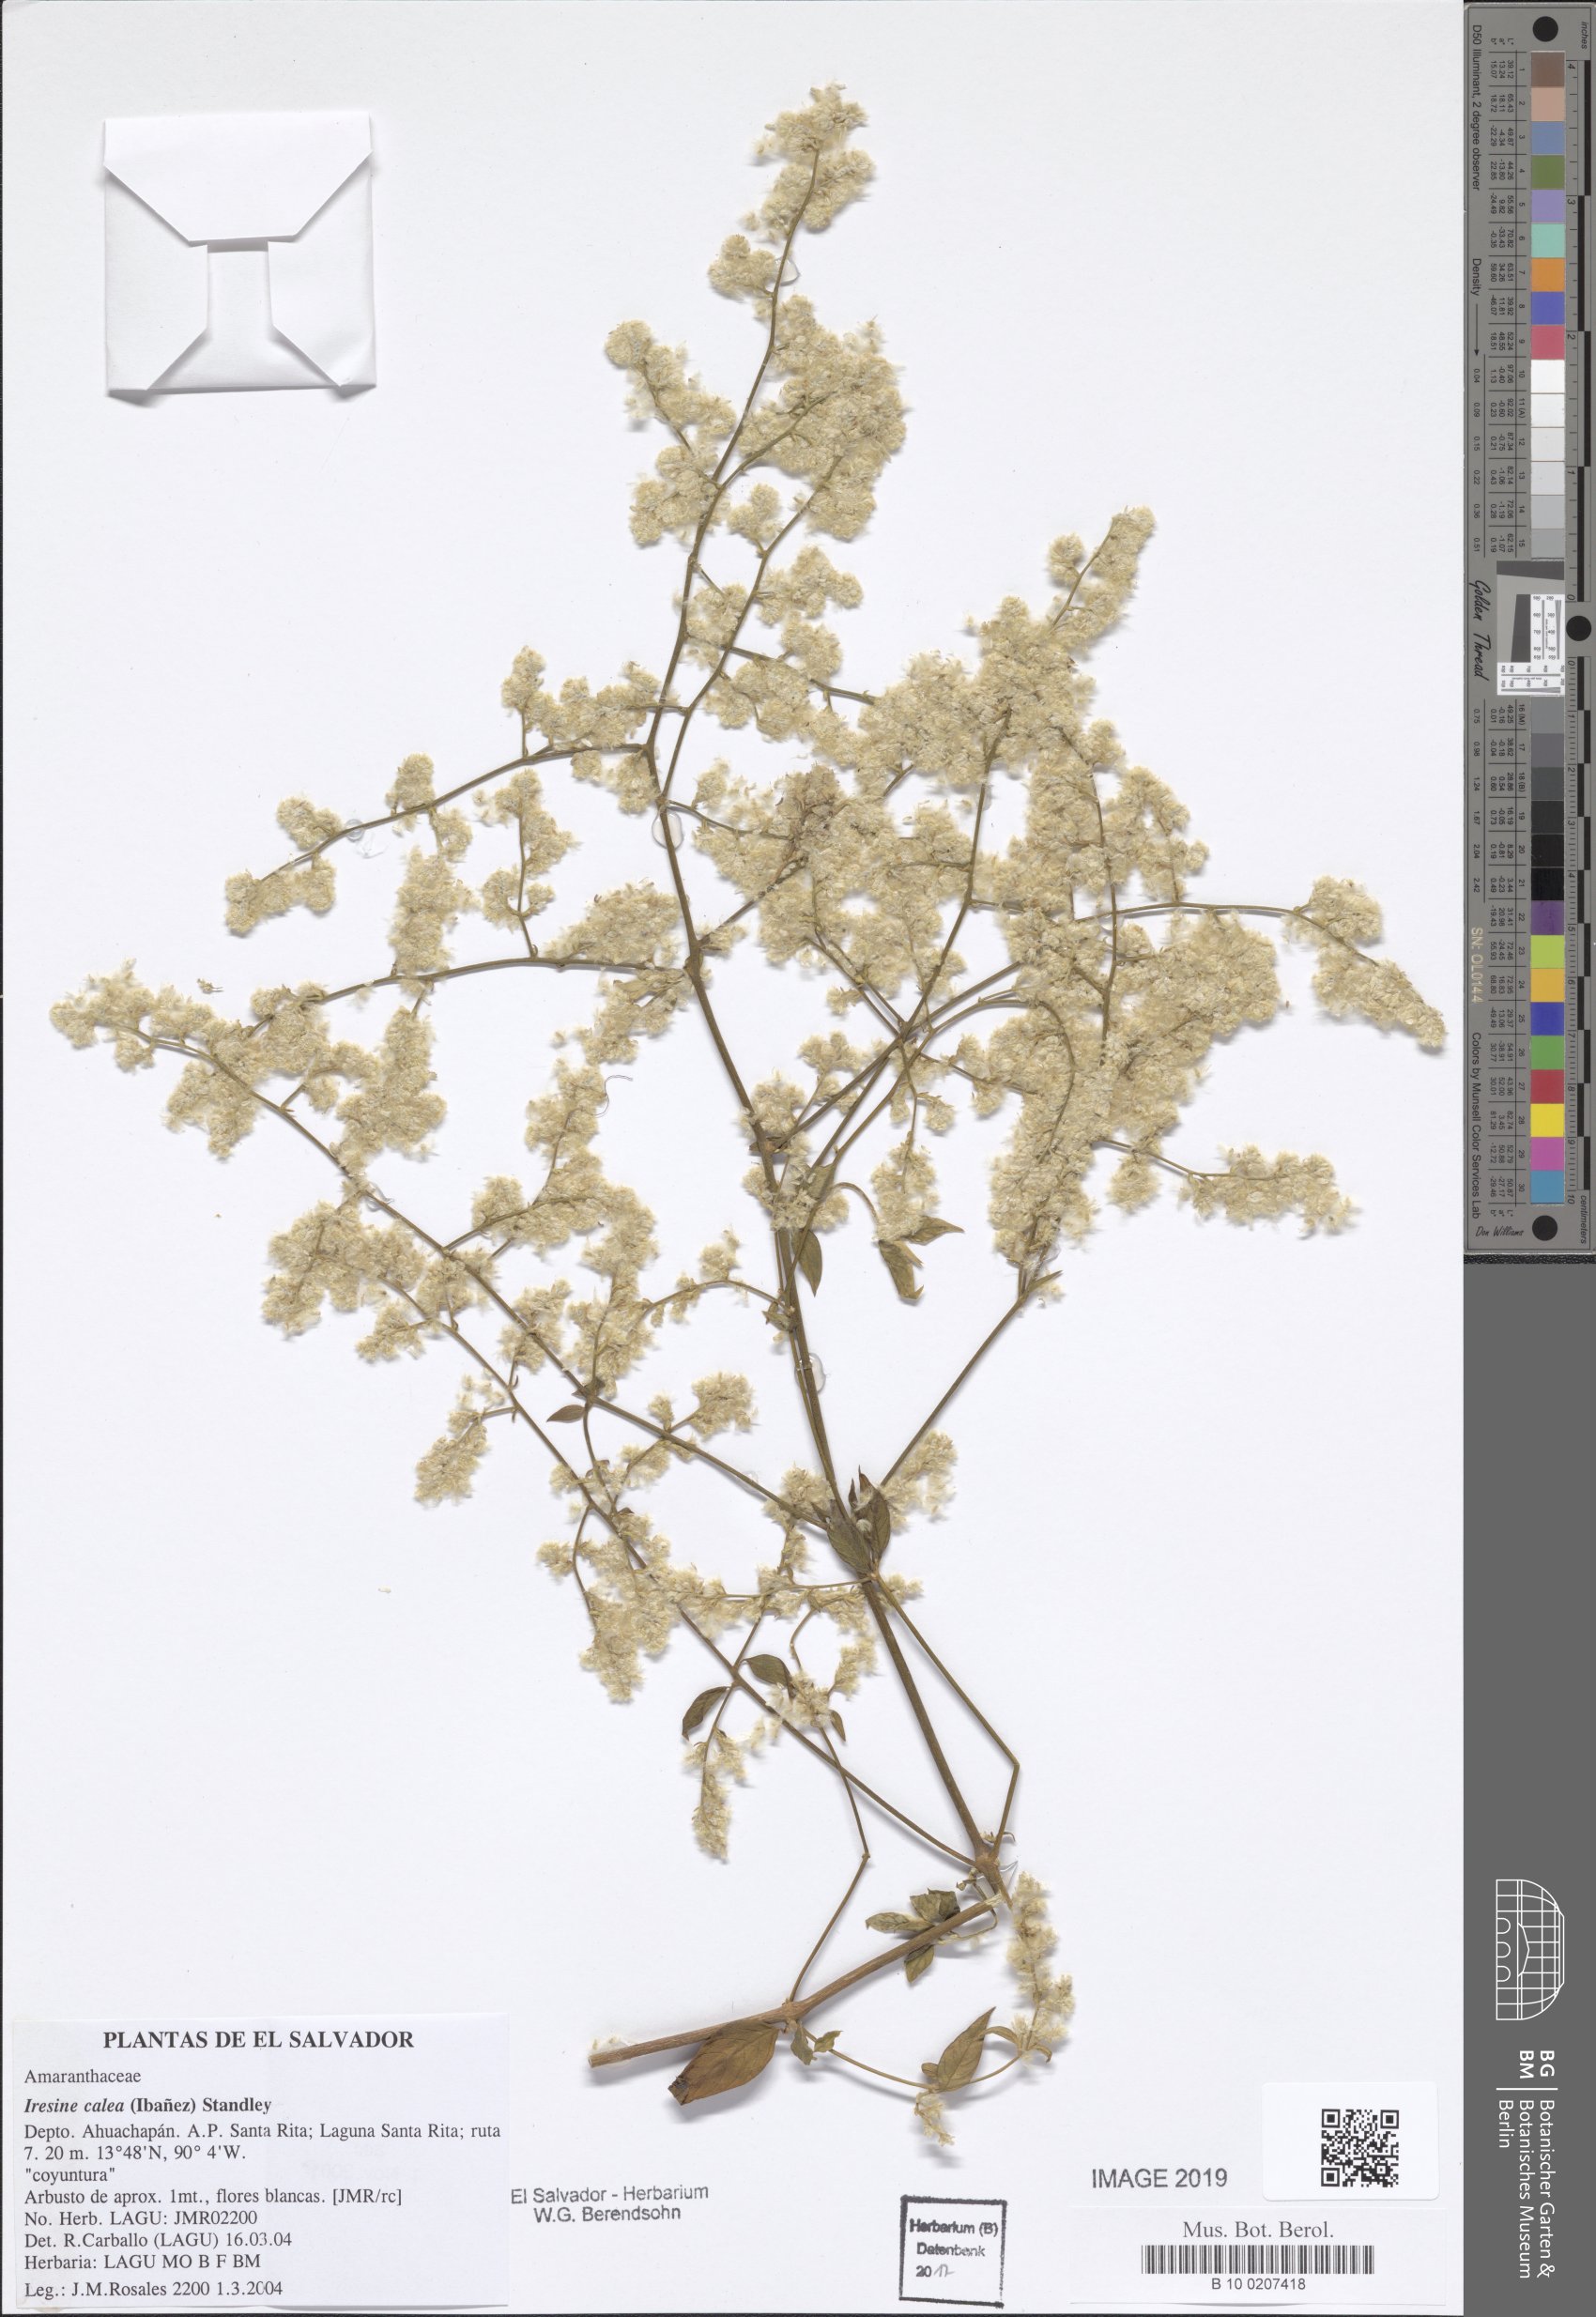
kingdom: Plantae
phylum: Tracheophyta
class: Magnoliopsida
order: Caryophyllales
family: Amaranthaceae
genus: Iresine
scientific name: Iresine latifolia
